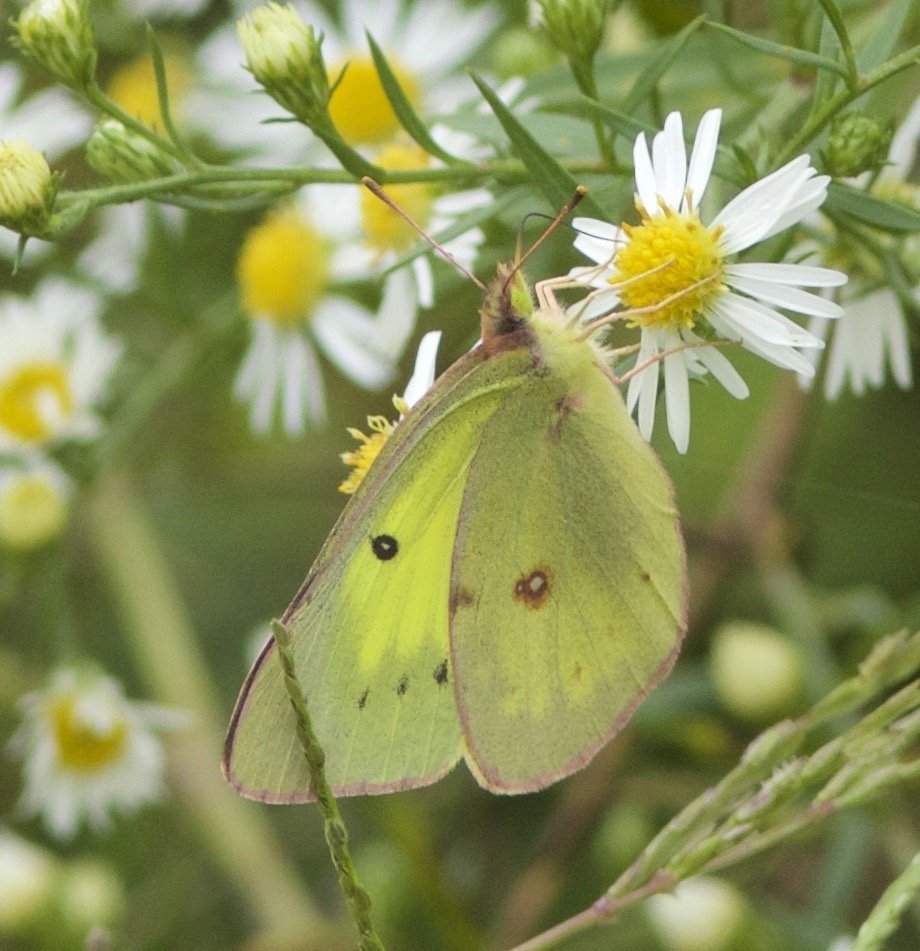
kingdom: Animalia
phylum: Arthropoda
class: Insecta
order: Lepidoptera
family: Pieridae
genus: Colias
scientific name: Colias philodice
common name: Clouded Sulphur
